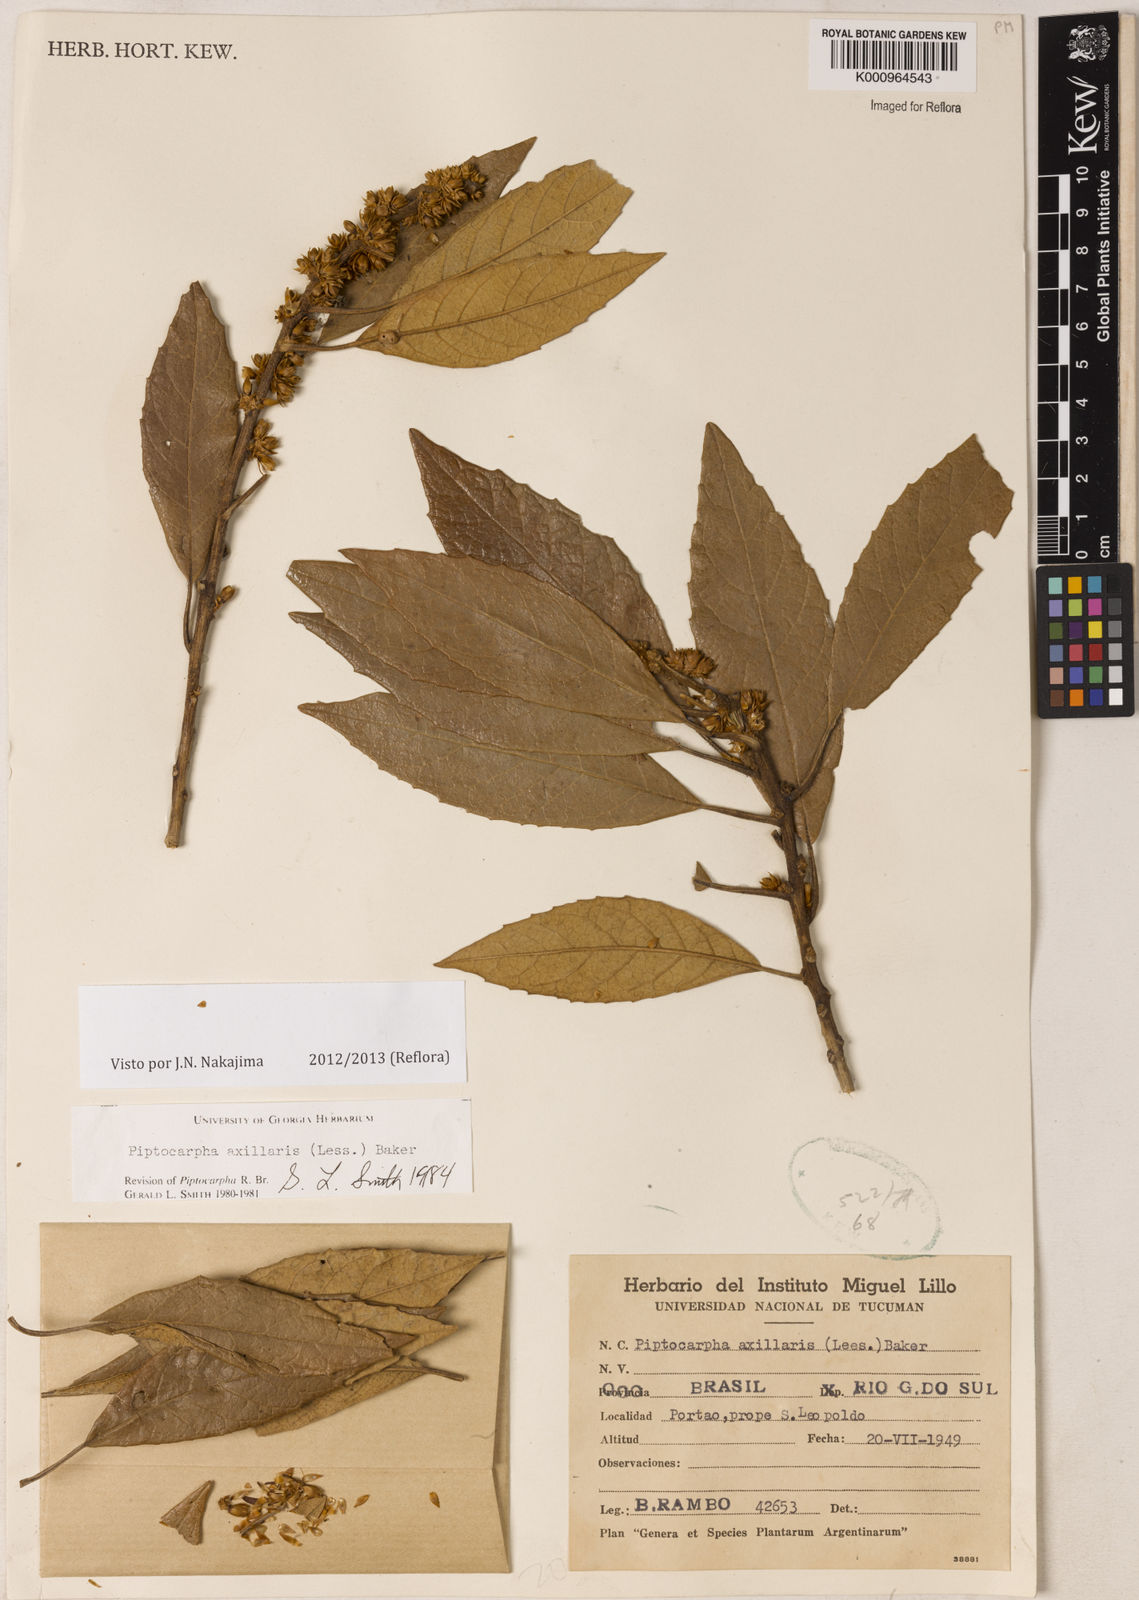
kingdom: Plantae
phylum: Tracheophyta
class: Magnoliopsida
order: Asterales
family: Asteraceae
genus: Piptocarpha
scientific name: Piptocarpha axillaris
